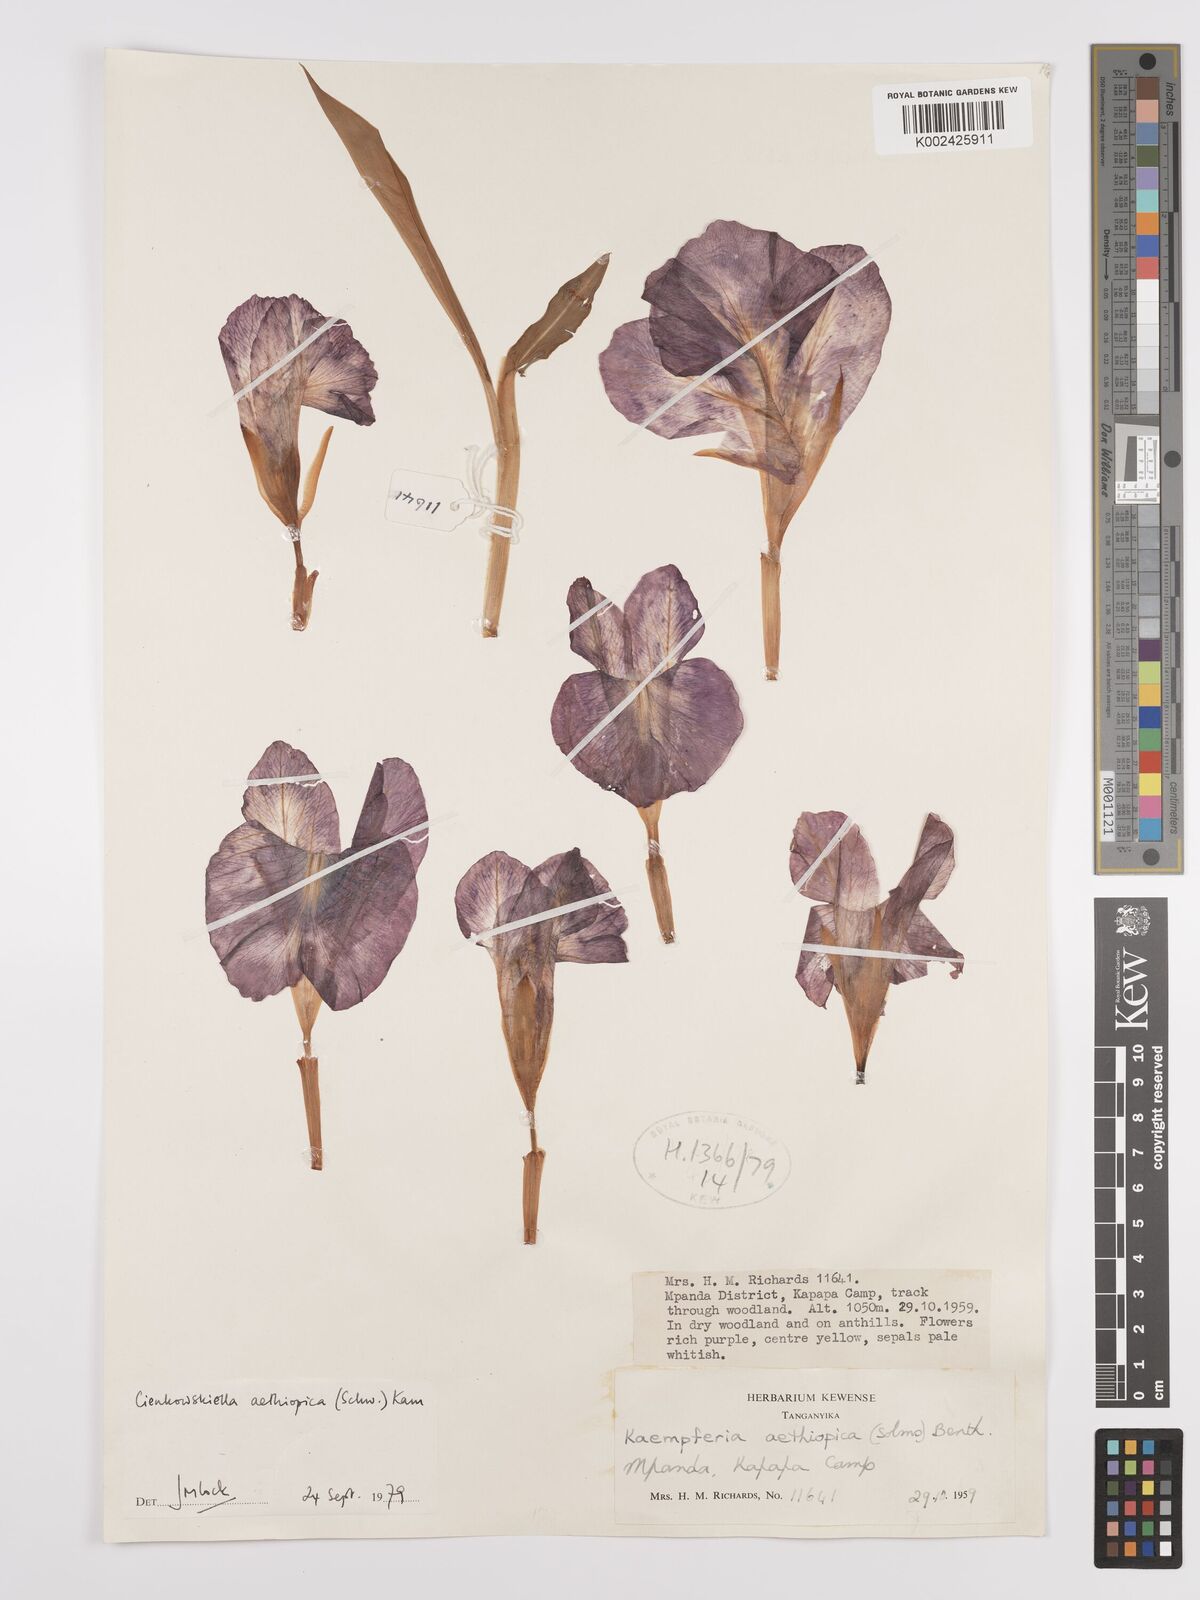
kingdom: Plantae
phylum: Tracheophyta
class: Liliopsida
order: Zingiberales
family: Zingiberaceae
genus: Siphonochilus
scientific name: Siphonochilus aethiopicus
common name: African-ginger
